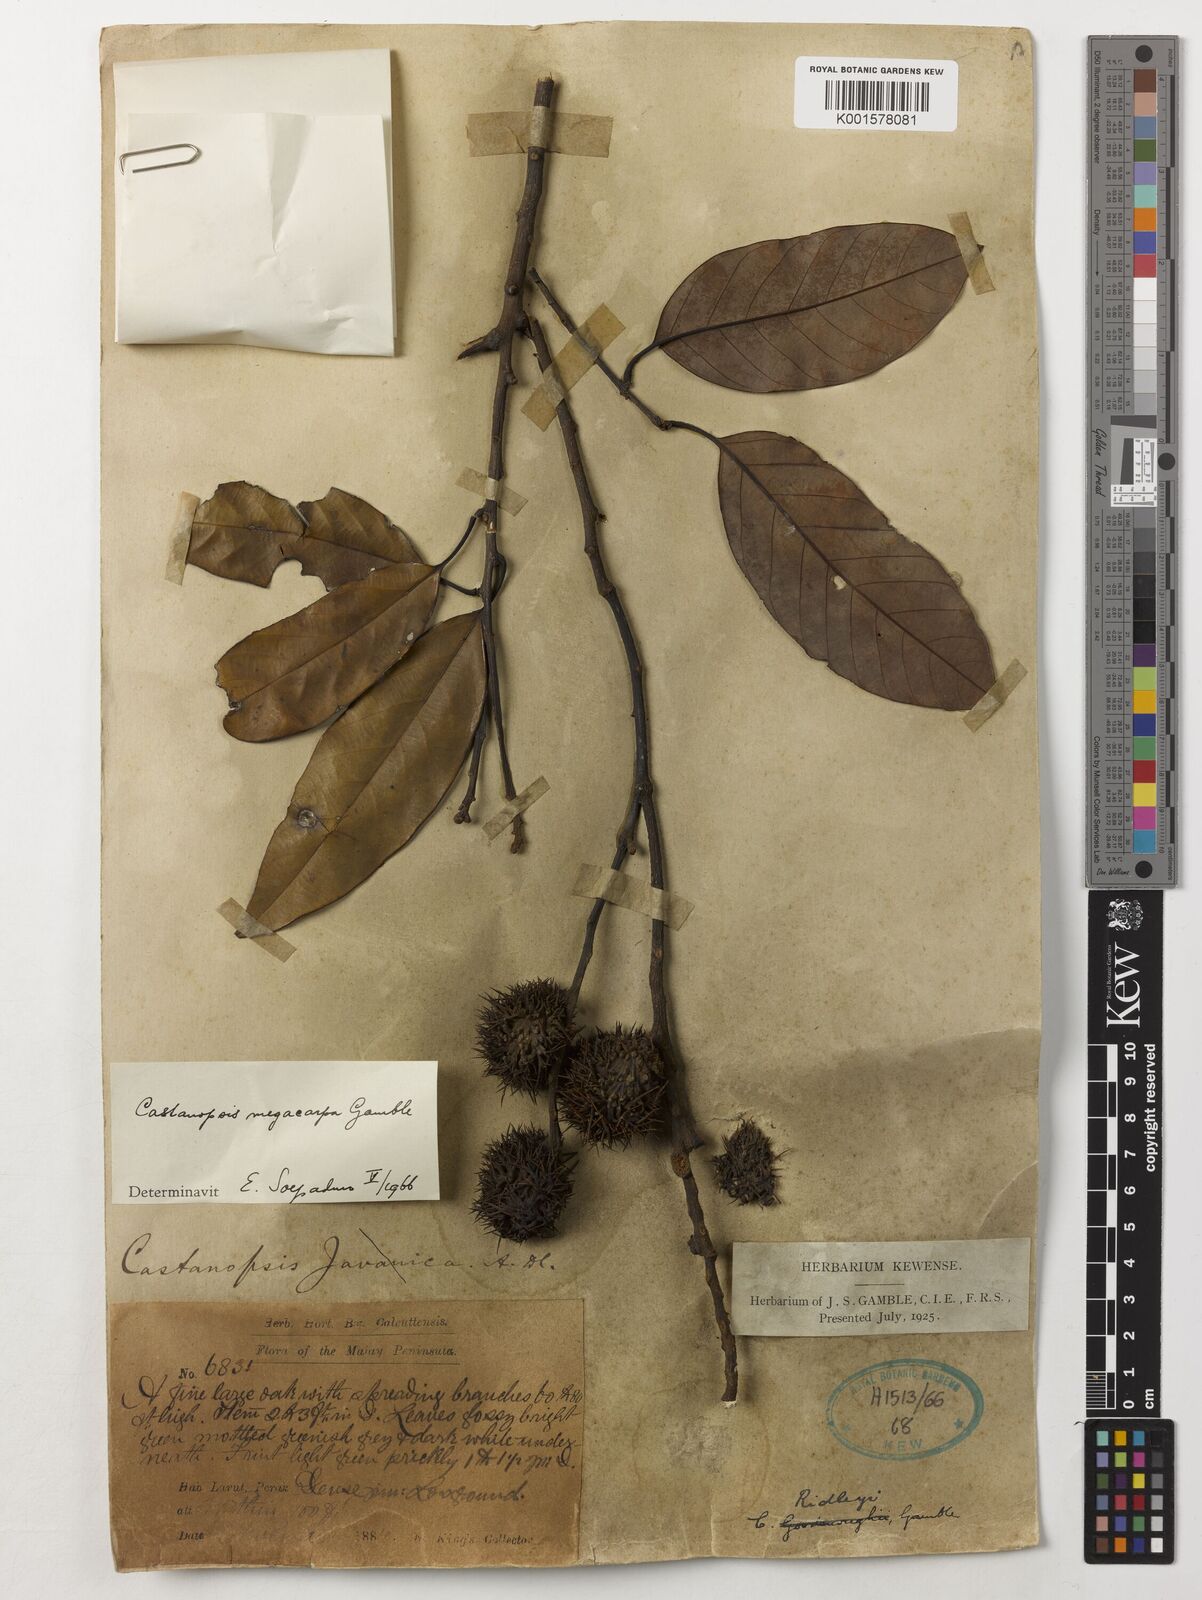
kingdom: Plantae
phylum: Tracheophyta
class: Magnoliopsida
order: Fagales
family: Fagaceae
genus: Castanopsis
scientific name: Castanopsis ridleyi
